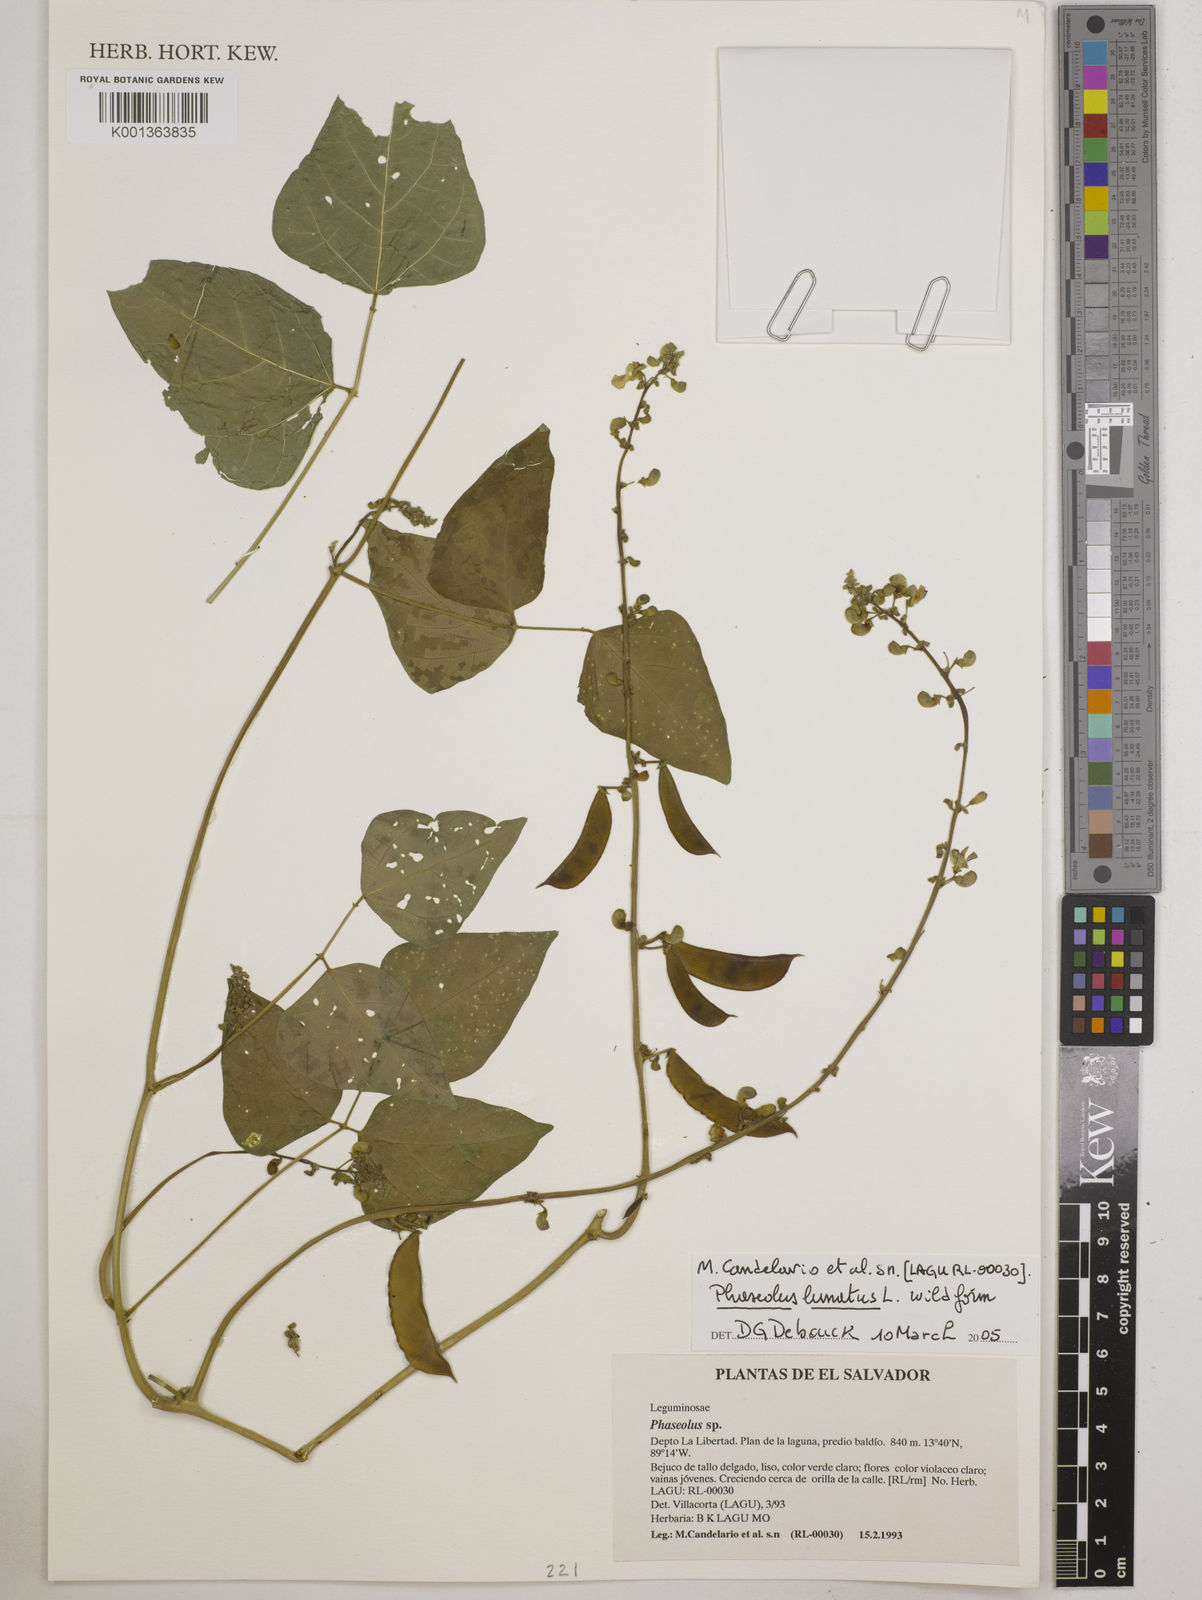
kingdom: Plantae
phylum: Tracheophyta
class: Magnoliopsida
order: Fabales
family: Fabaceae
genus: Phaseolus
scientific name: Phaseolus lunatus
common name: Sieva bean
